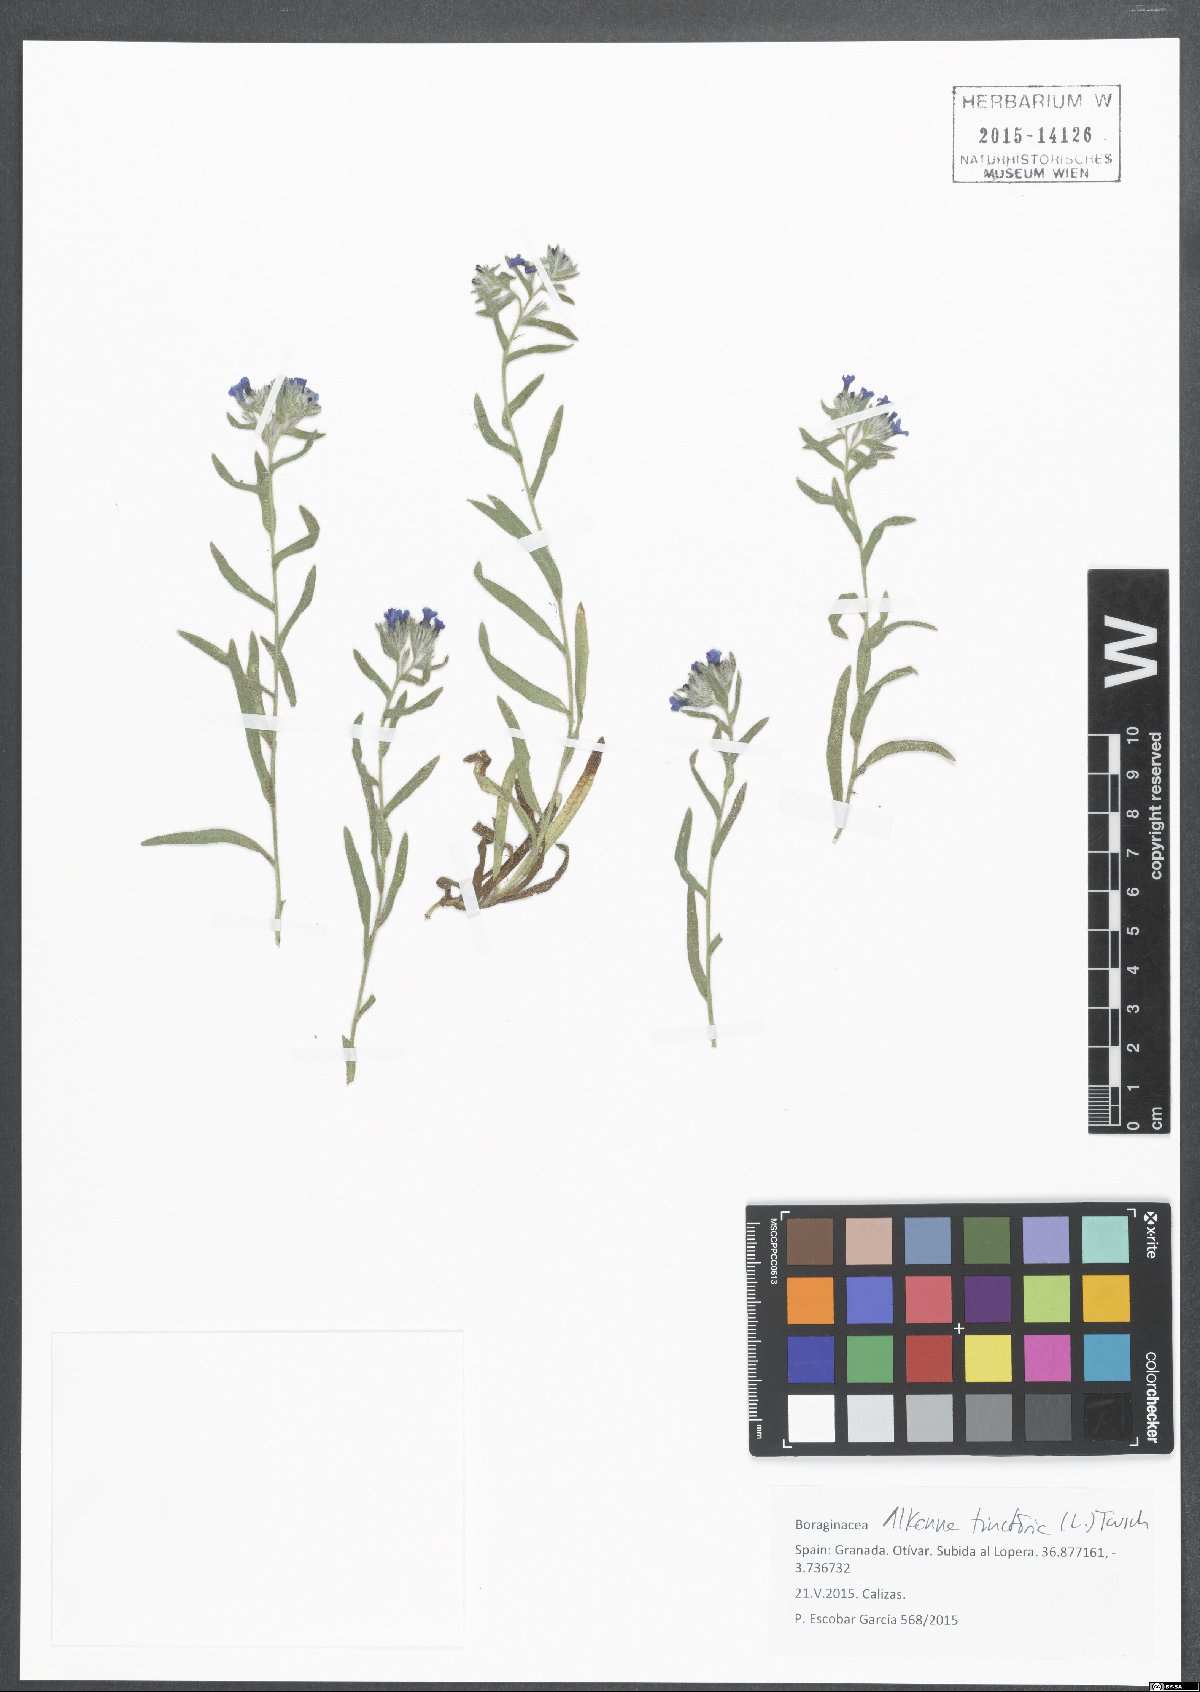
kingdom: Plantae
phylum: Tracheophyta
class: Magnoliopsida
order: Boraginales
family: Boraginaceae
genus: Alkanna
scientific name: Alkanna tinctoria
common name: Dyer's-alkanet
